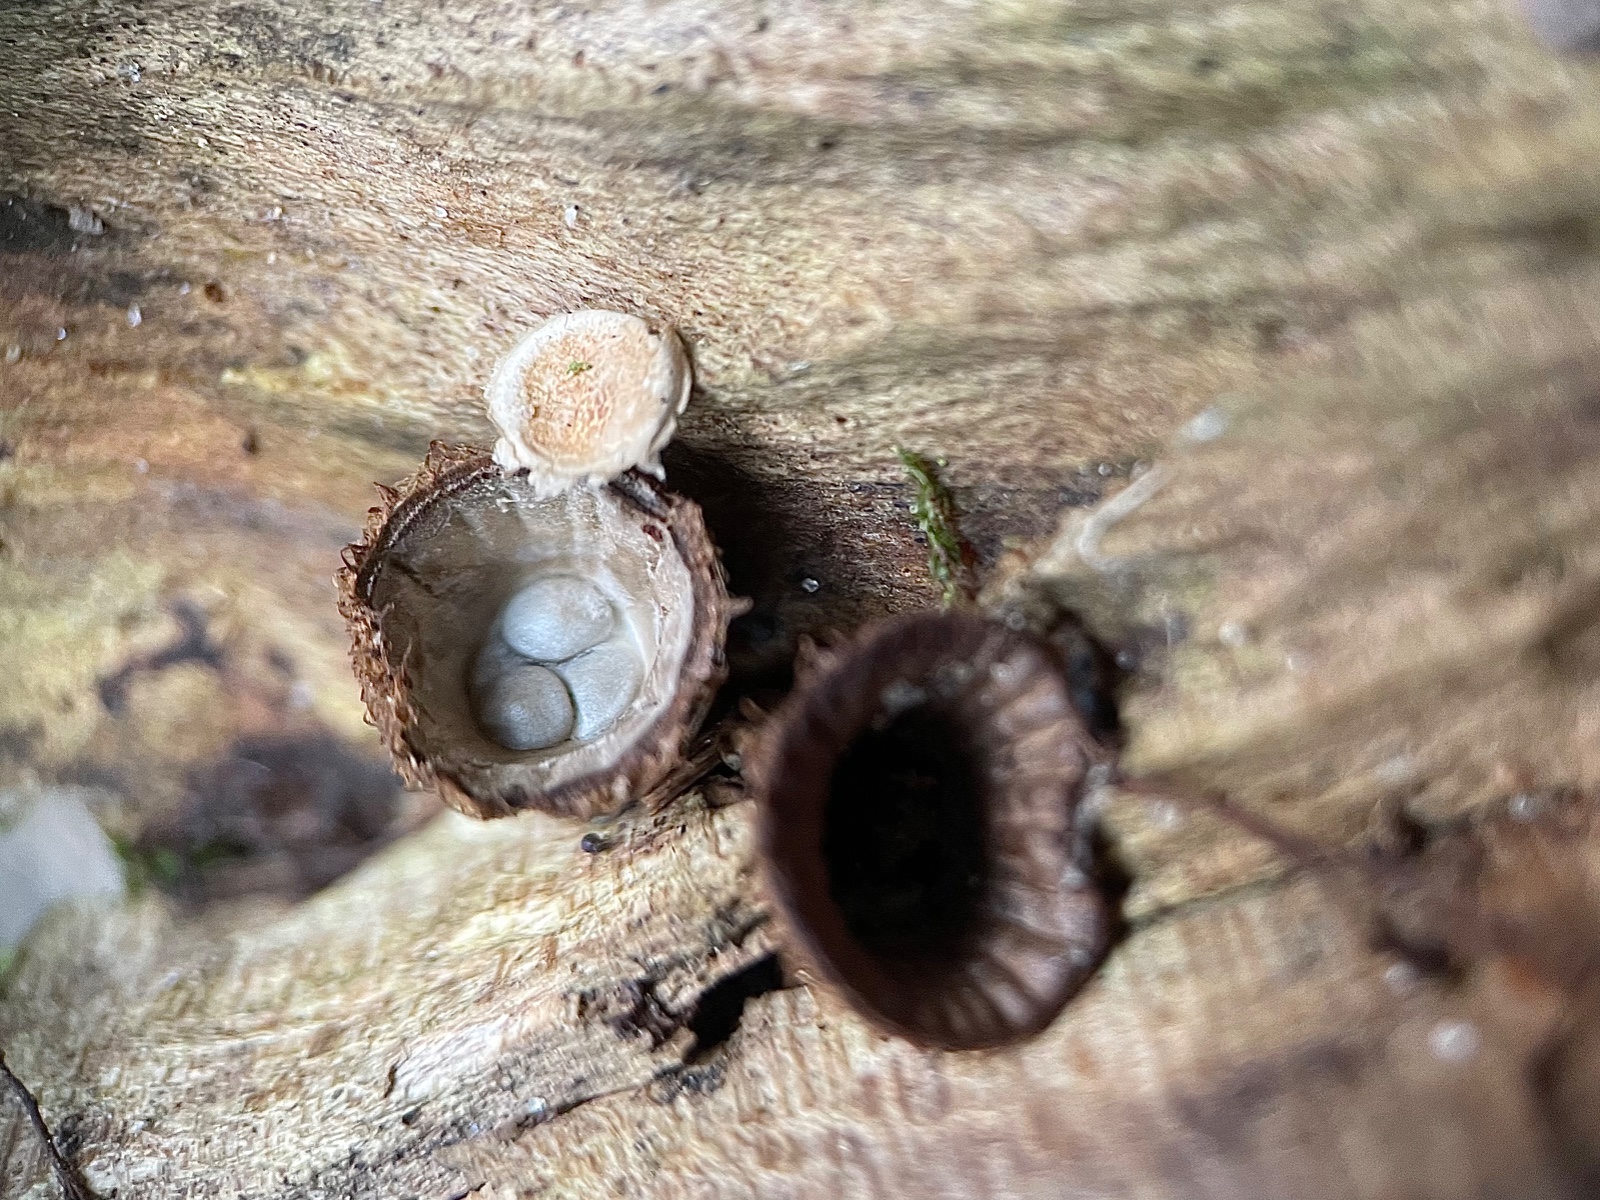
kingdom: Fungi
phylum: Basidiomycota
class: Agaricomycetes
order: Agaricales
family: Agaricaceae
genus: Cyathus
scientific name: Cyathus striatus
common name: stribet redesvamp
